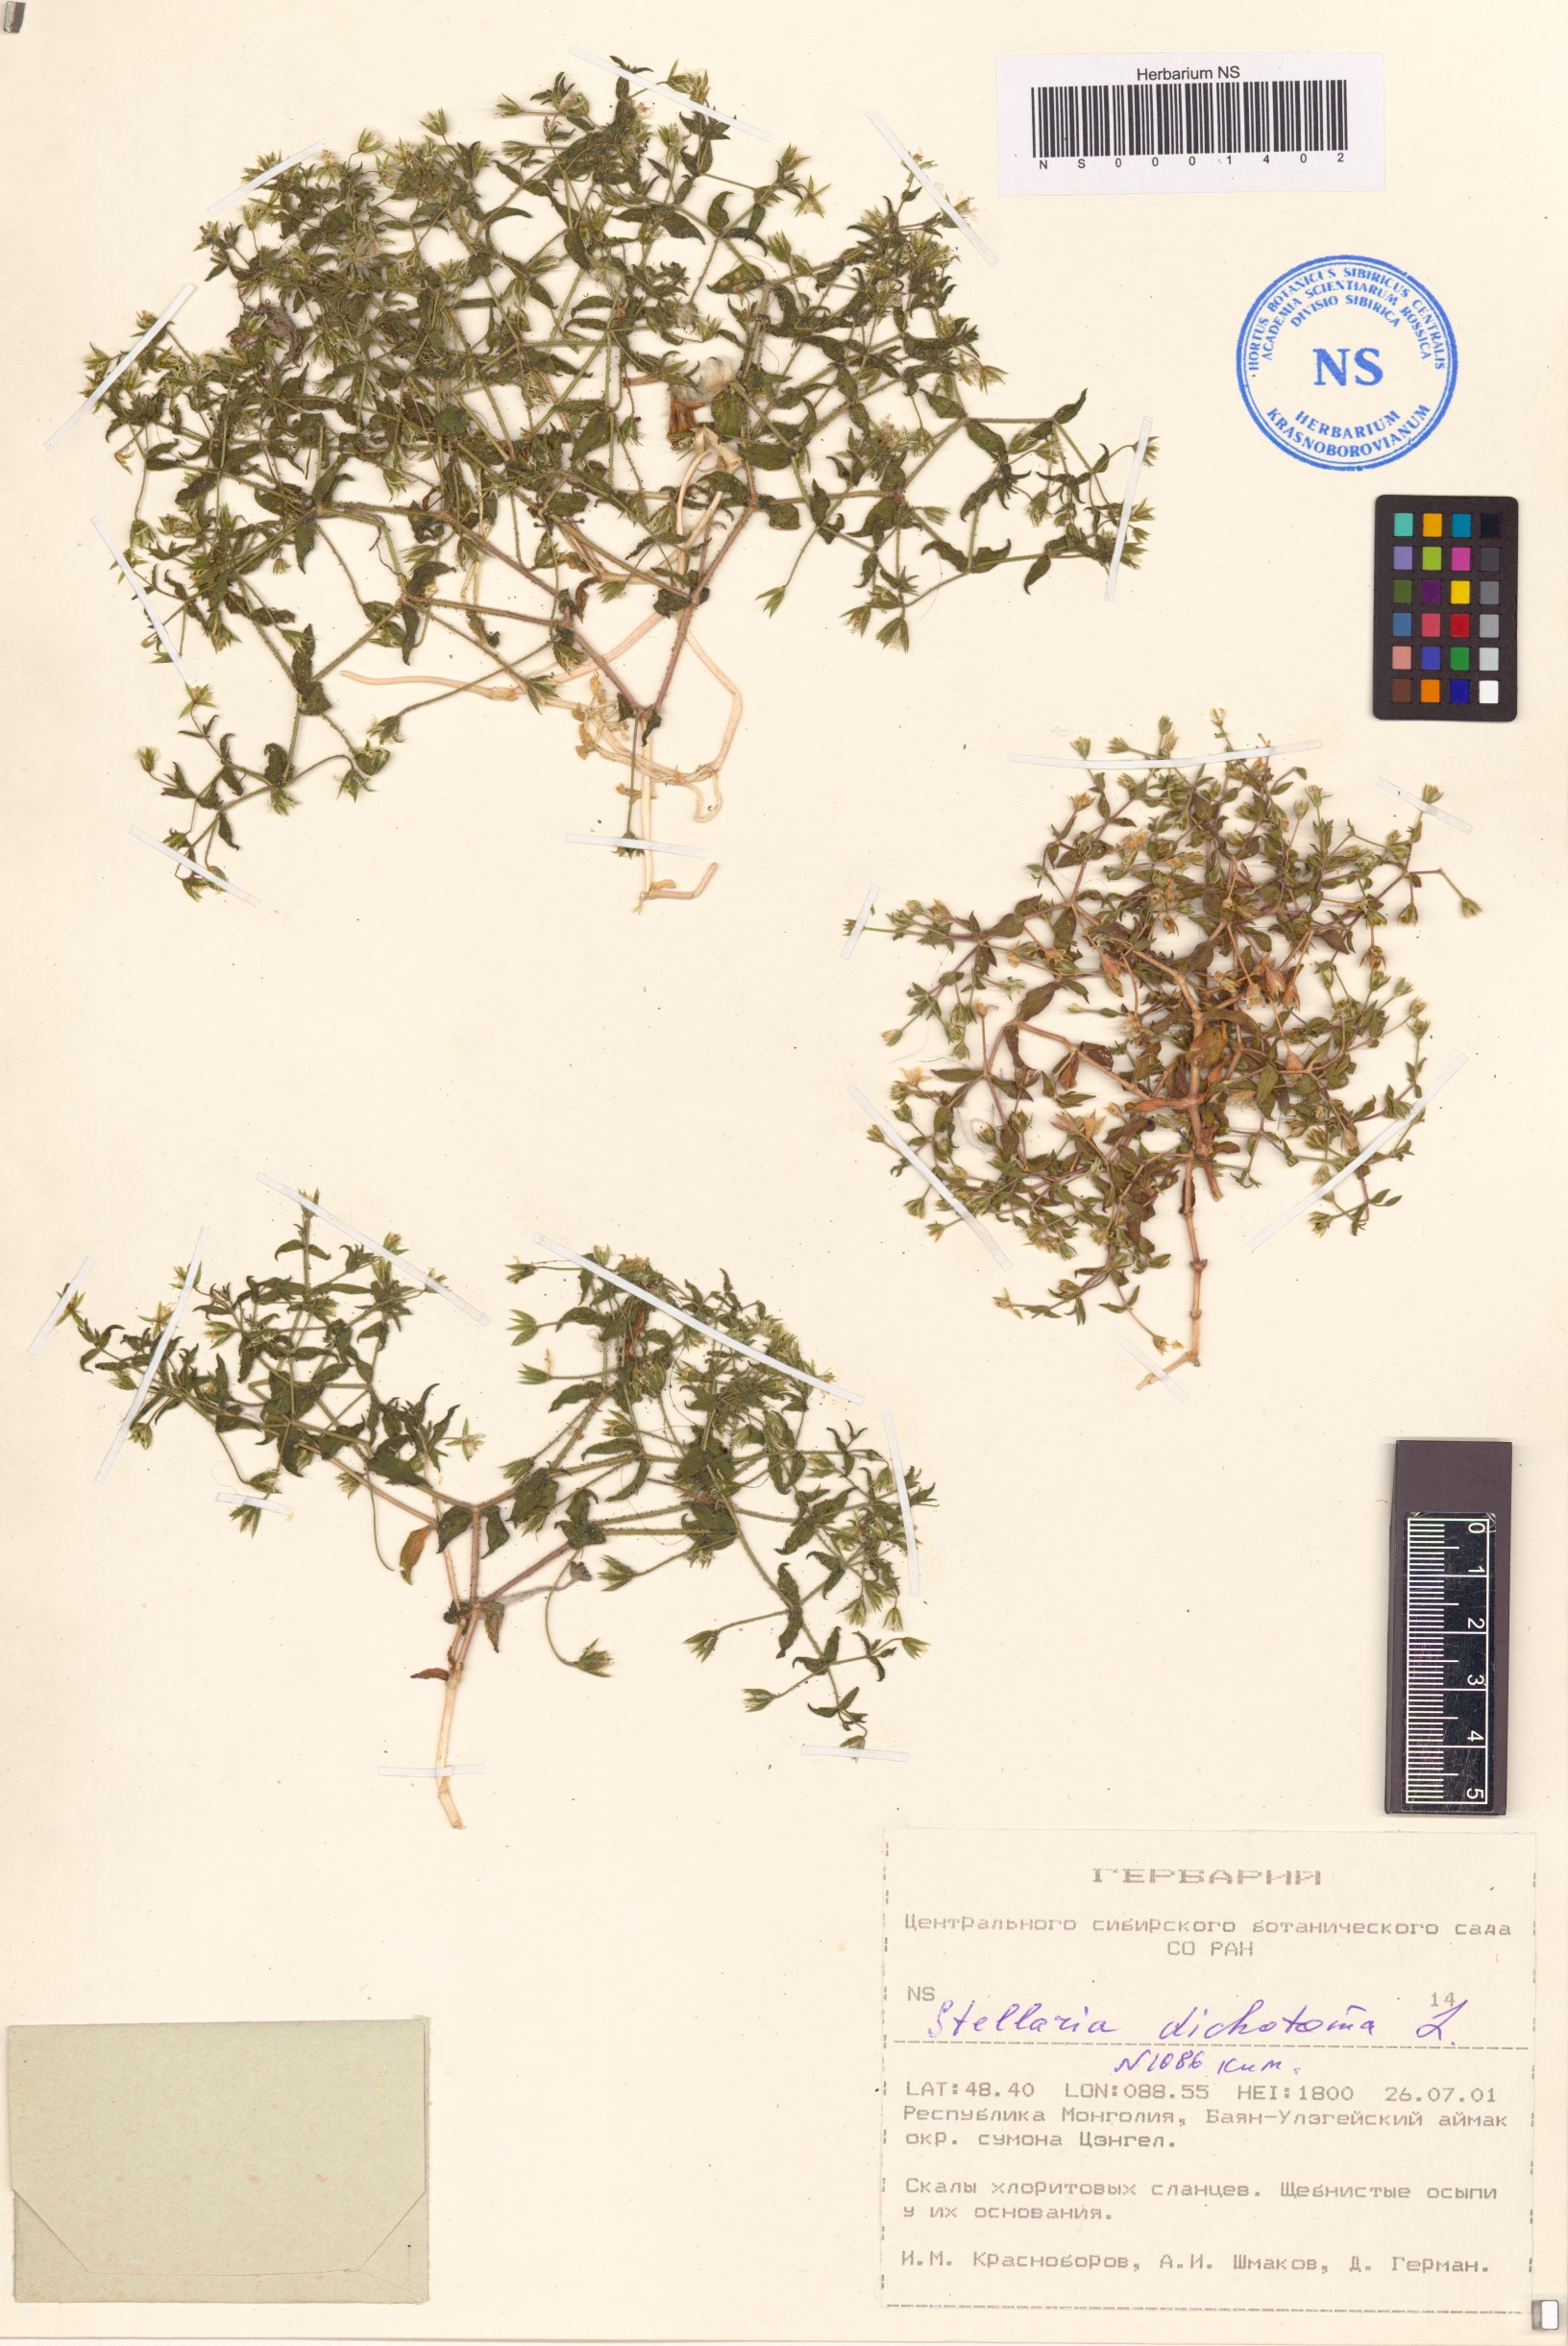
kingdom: Plantae
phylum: Tracheophyta
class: Magnoliopsida
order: Caryophyllales
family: Caryophyllaceae
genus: Mesostemma
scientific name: Mesostemma dichotomum
